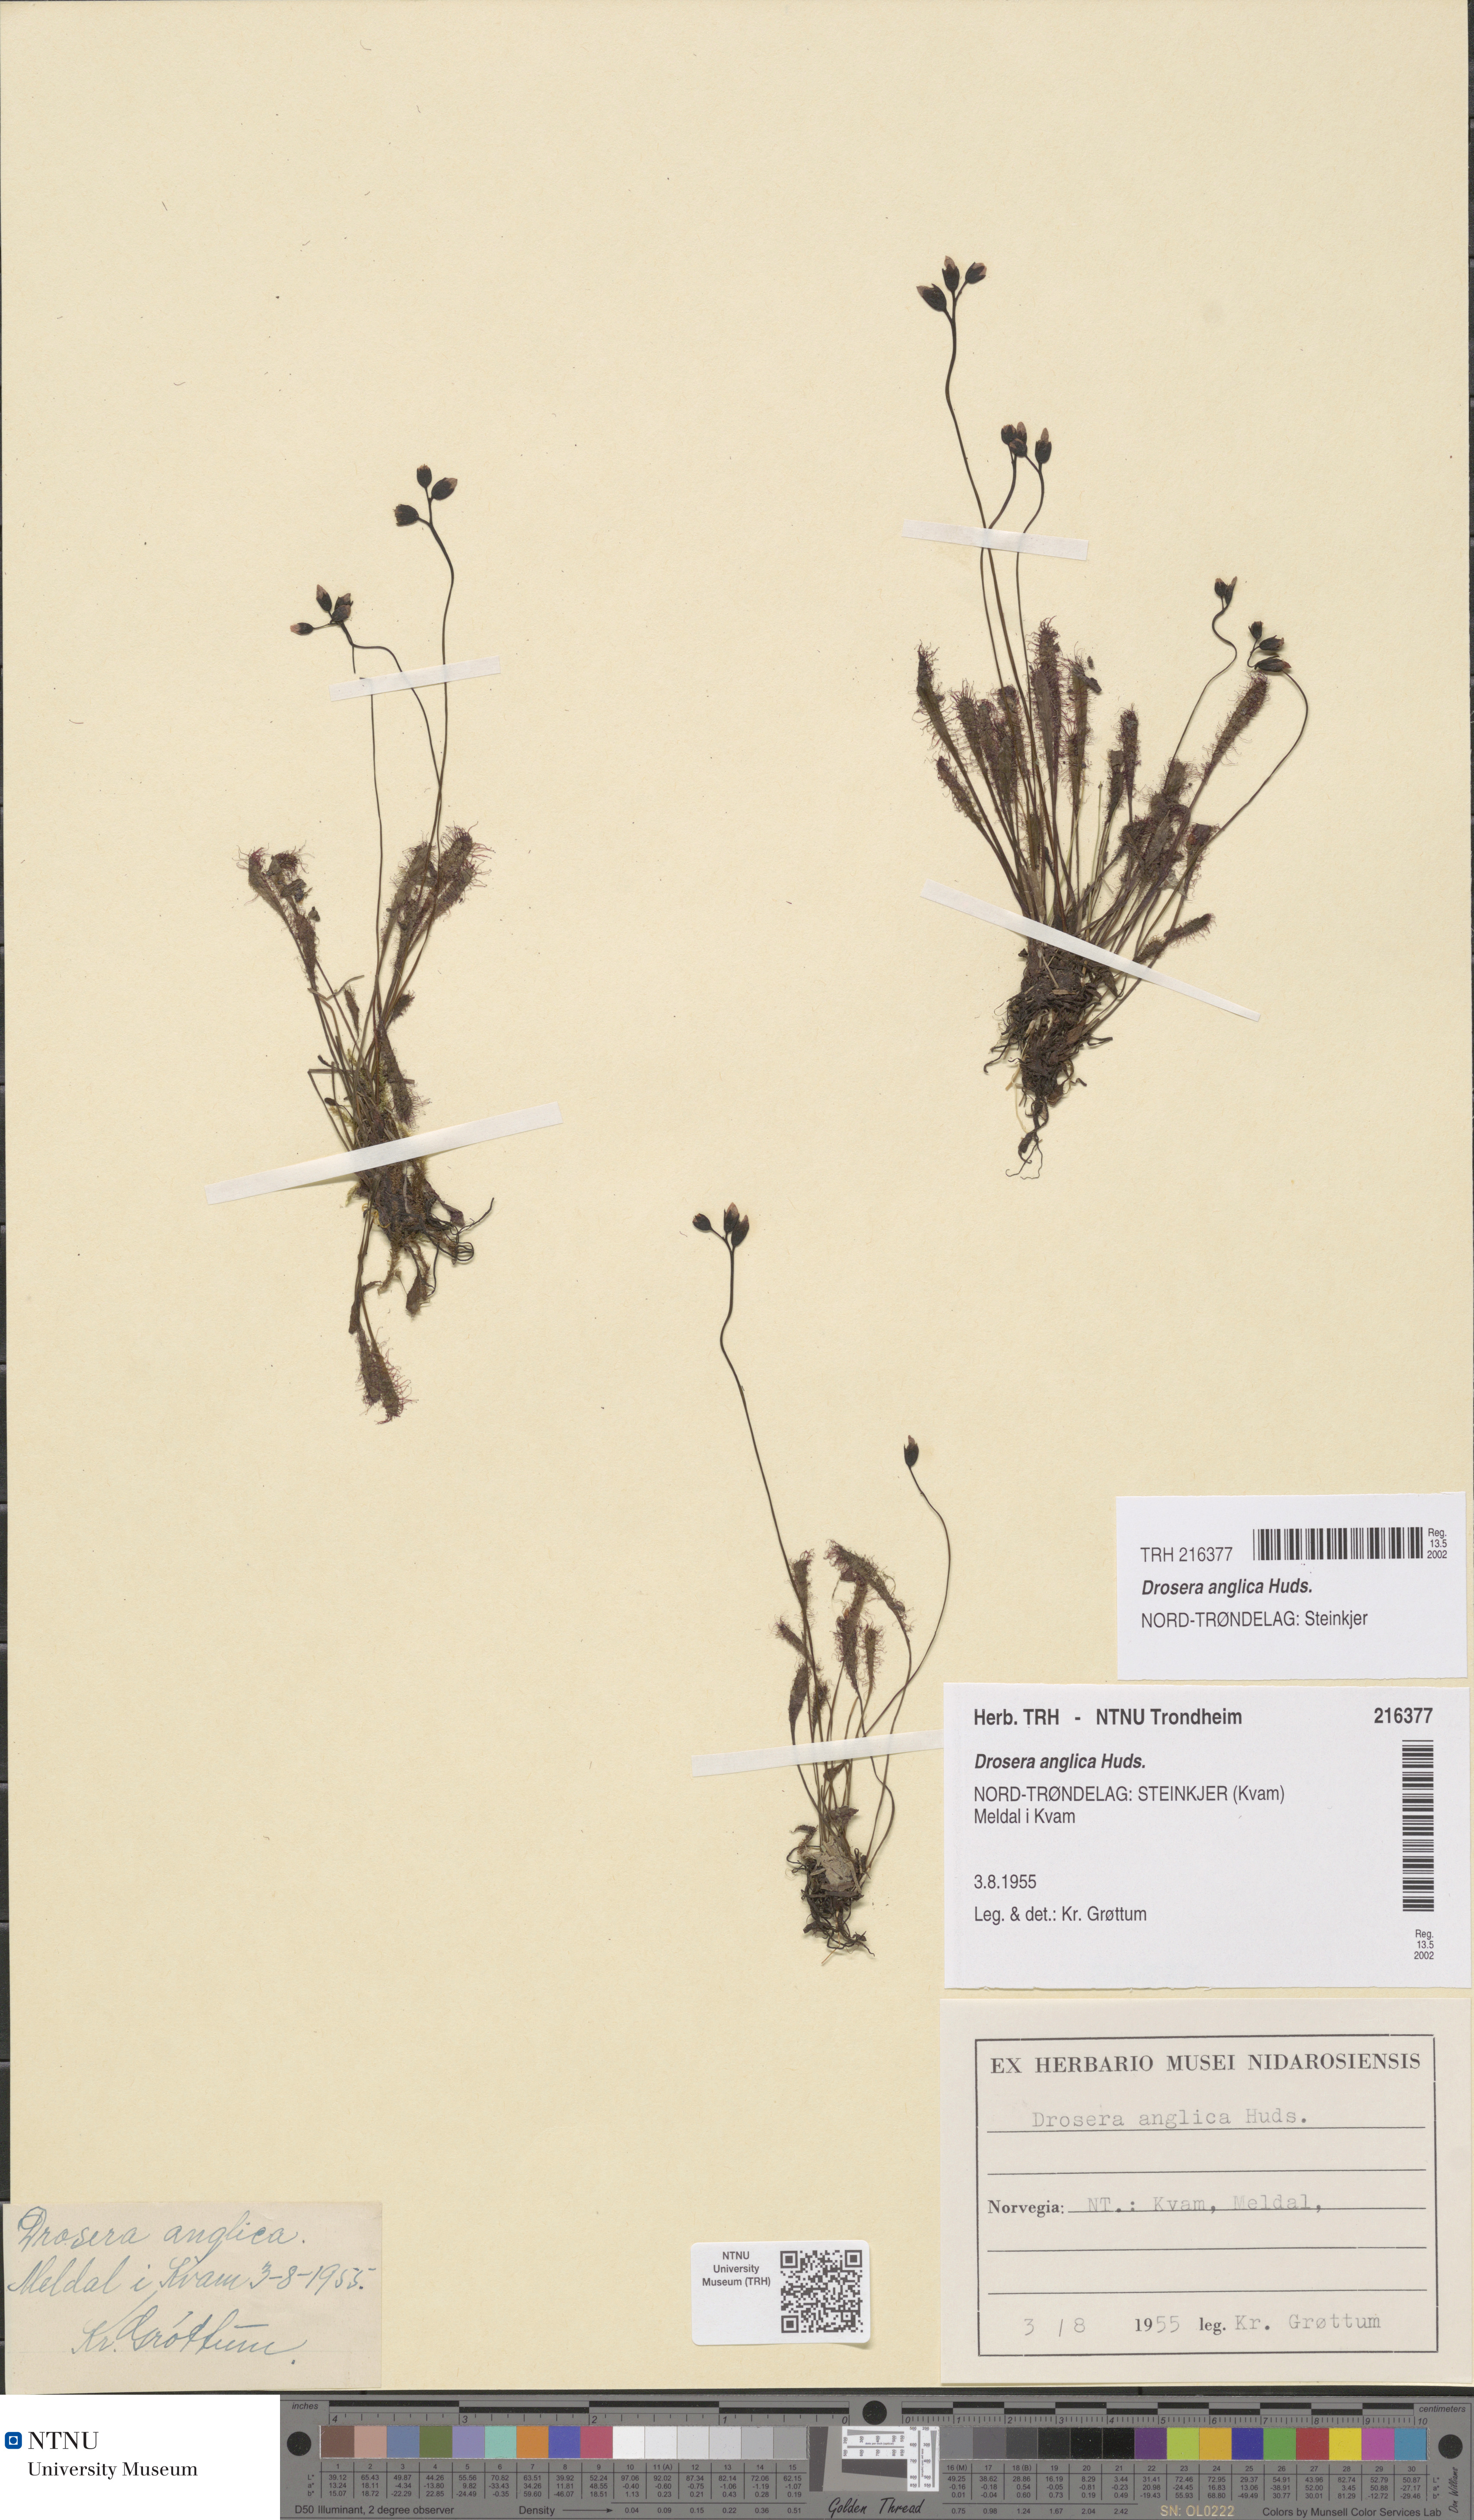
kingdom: Plantae
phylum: Tracheophyta
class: Magnoliopsida
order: Caryophyllales
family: Droseraceae
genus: Drosera
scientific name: Drosera anglica
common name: Great sundew
